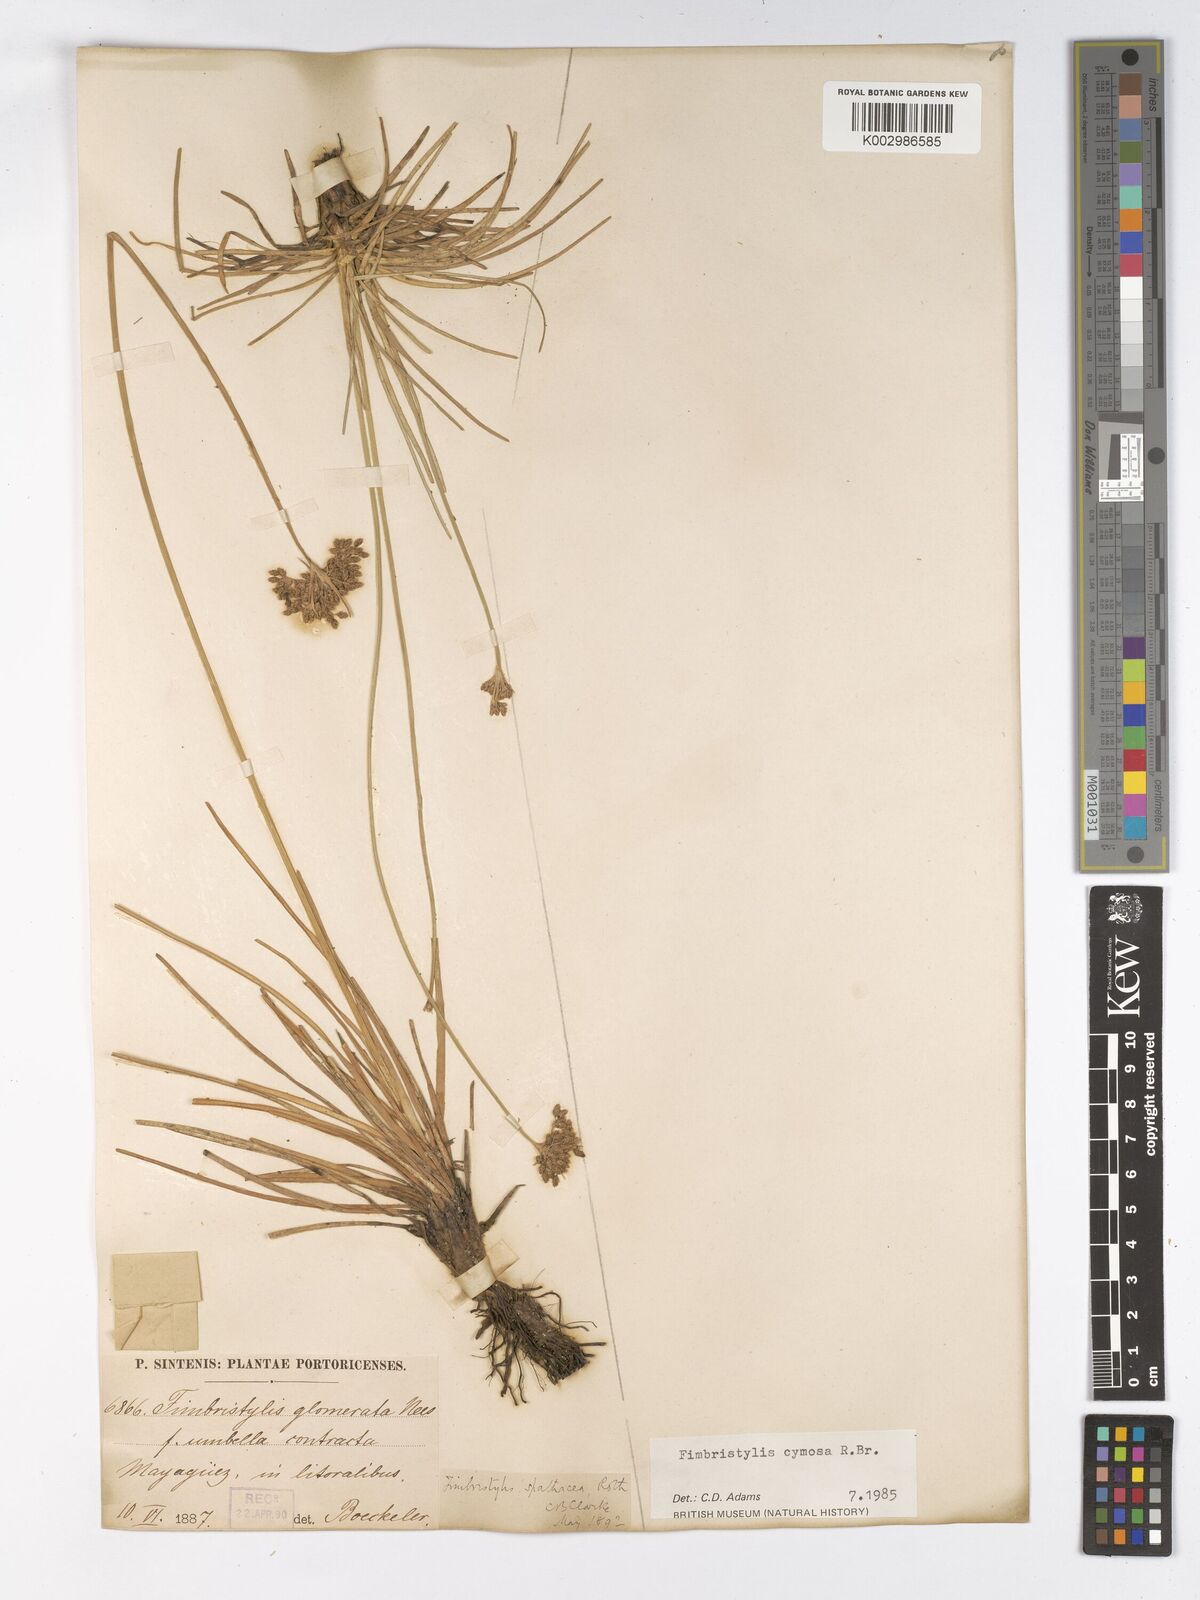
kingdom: Plantae
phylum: Tracheophyta
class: Liliopsida
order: Poales
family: Cyperaceae
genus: Fimbristylis
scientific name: Fimbristylis cymosa
